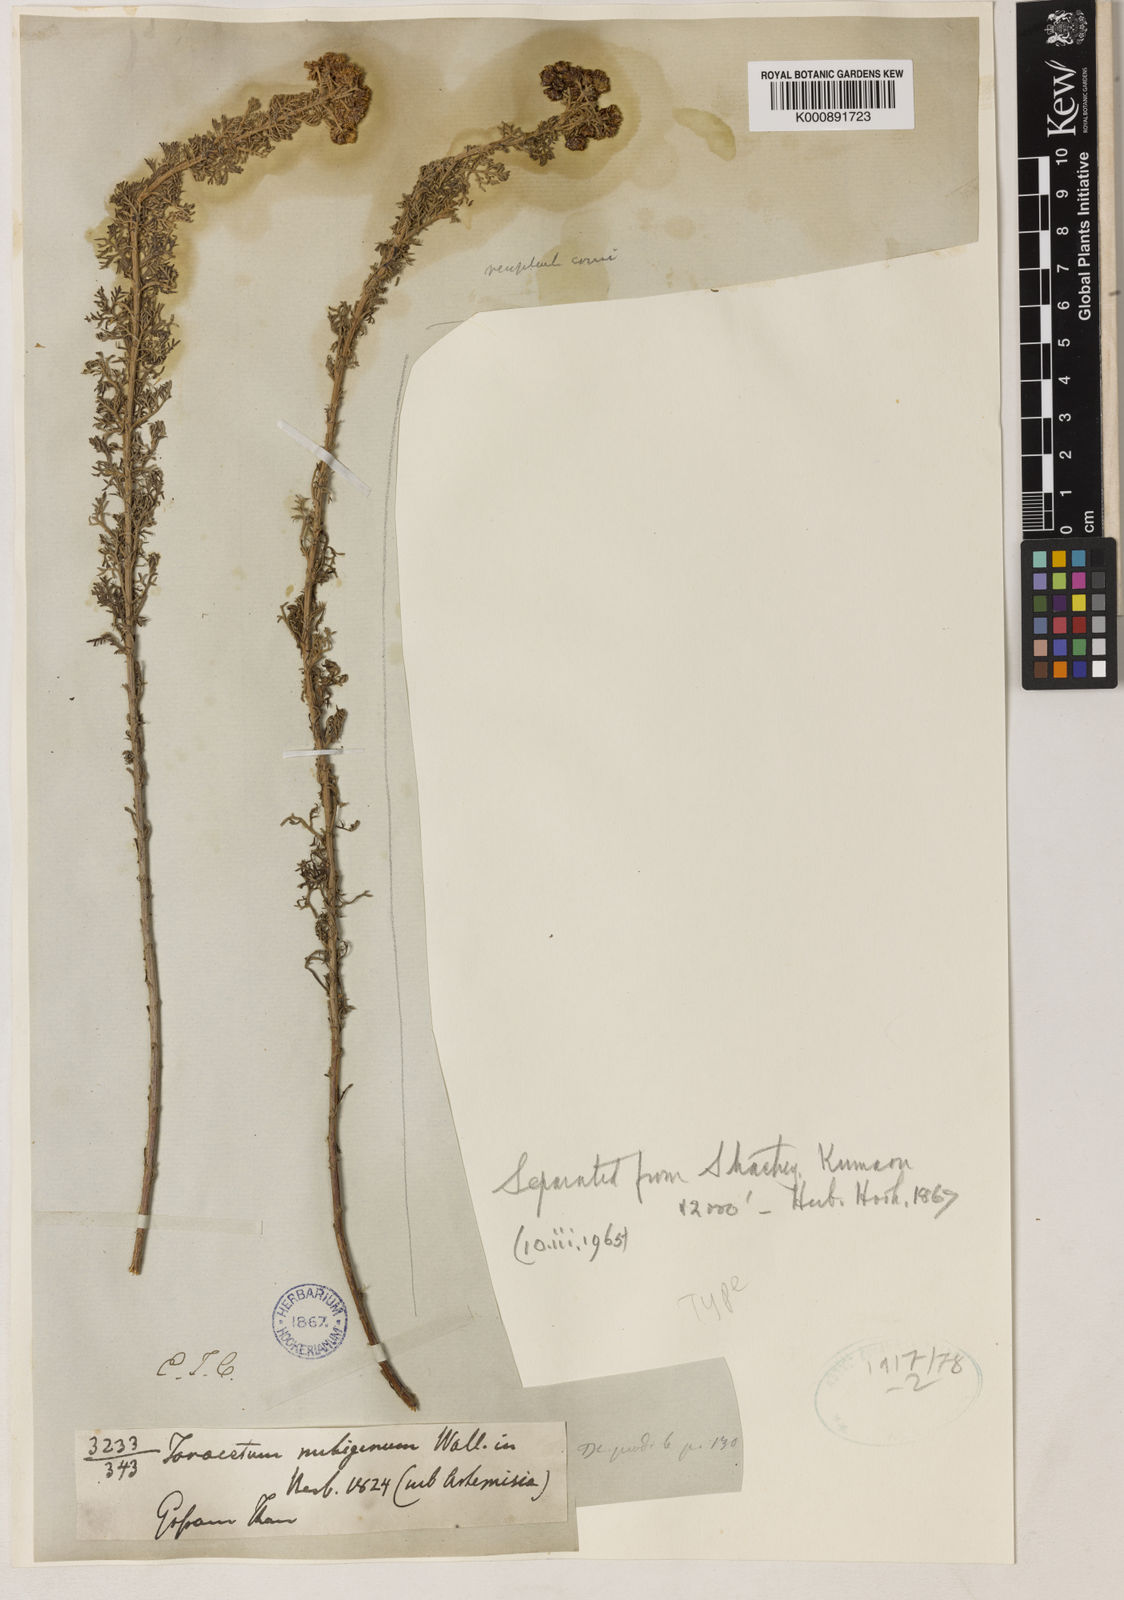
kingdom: Plantae
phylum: Tracheophyta
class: Magnoliopsida
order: Asterales
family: Asteraceae
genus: Ajania
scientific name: Ajania nubigena
